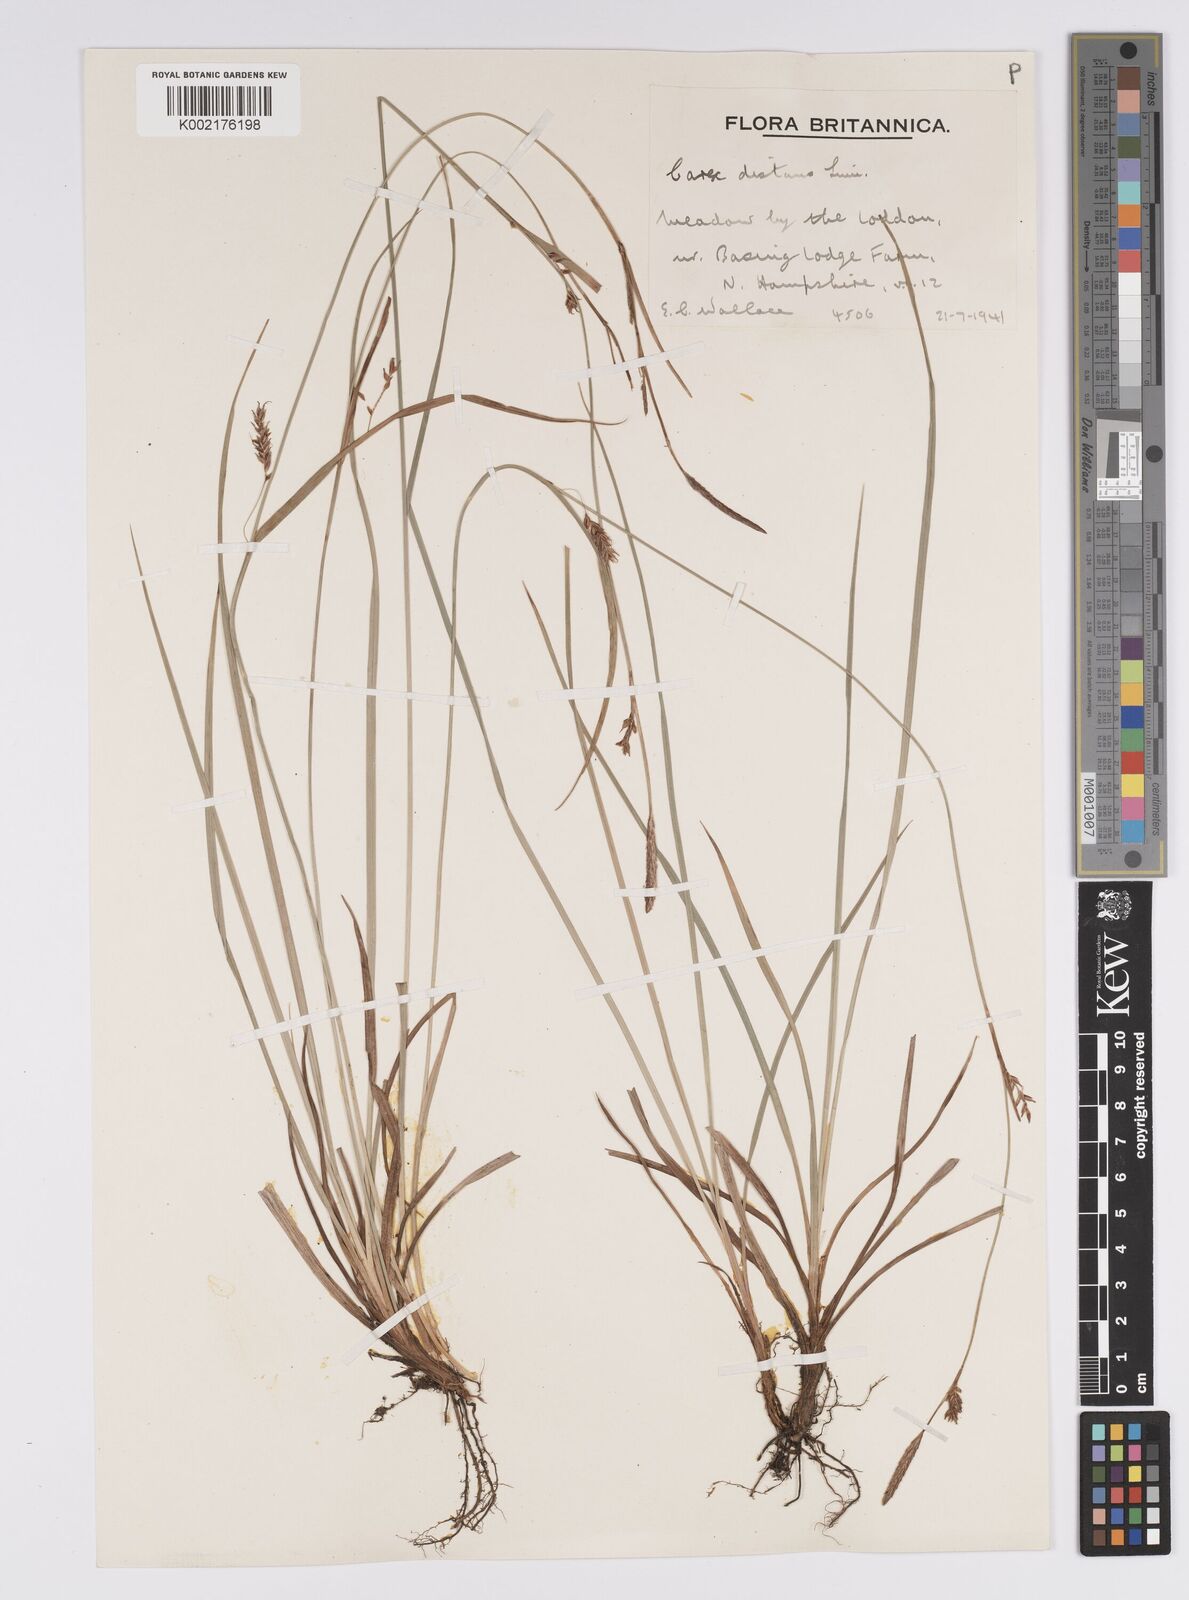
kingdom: Plantae
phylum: Tracheophyta
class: Liliopsida
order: Poales
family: Cyperaceae
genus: Carex
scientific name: Carex distans
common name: Distant sedge
